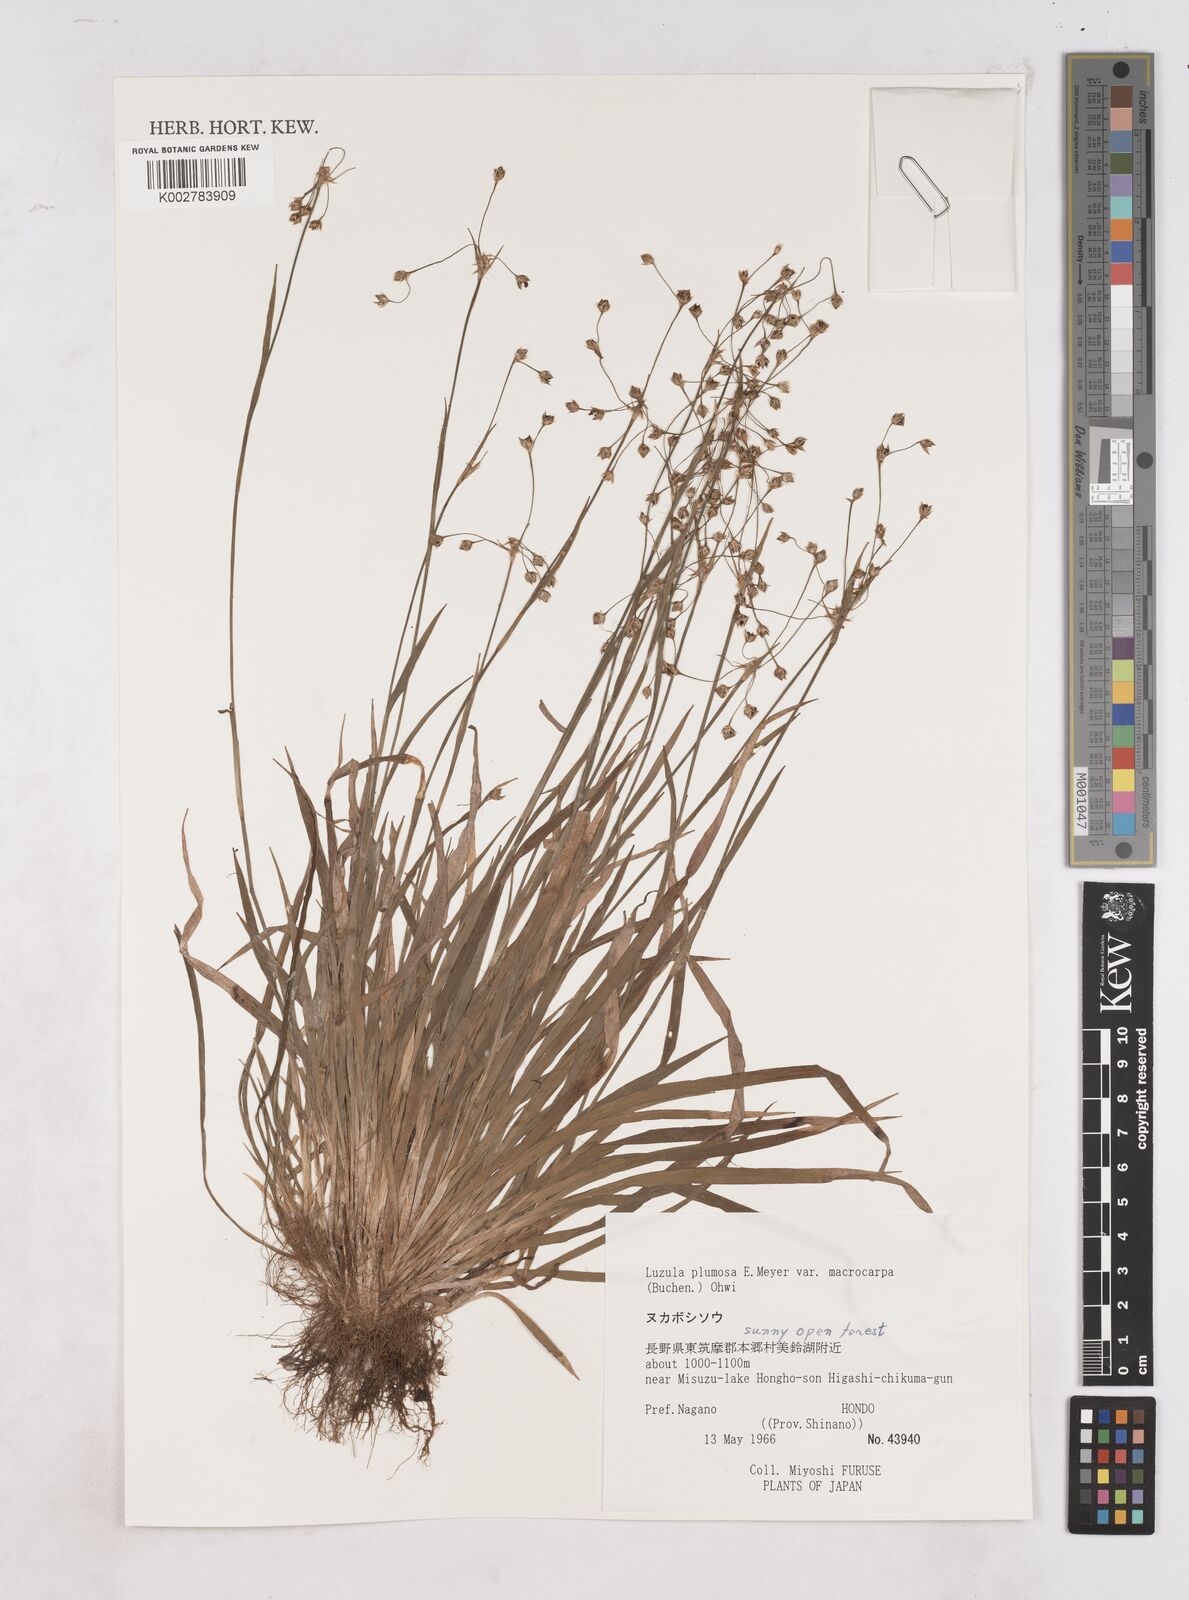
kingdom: Plantae
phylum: Tracheophyta
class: Liliopsida
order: Poales
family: Juncaceae
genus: Luzula
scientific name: Luzula plumosa
